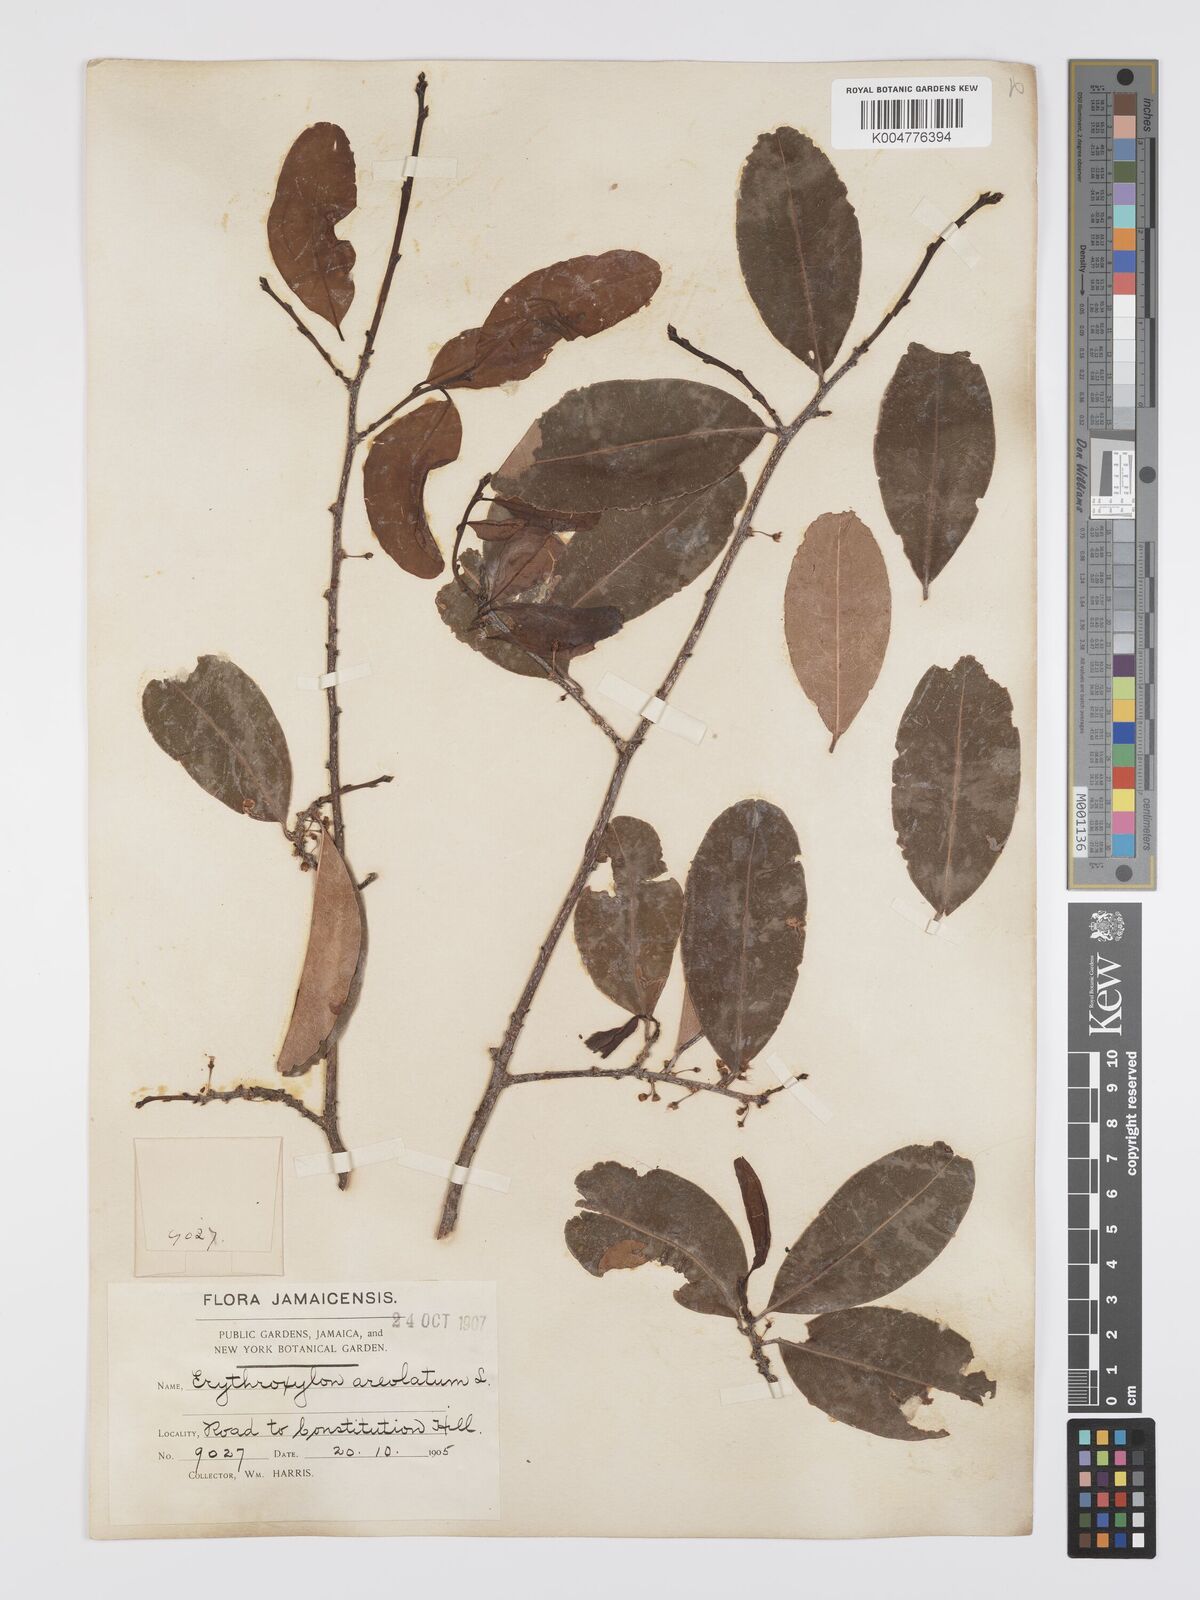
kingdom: Plantae
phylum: Tracheophyta
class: Magnoliopsida
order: Malpighiales
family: Erythroxylaceae
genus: Erythroxylum
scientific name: Erythroxylum areolatum
